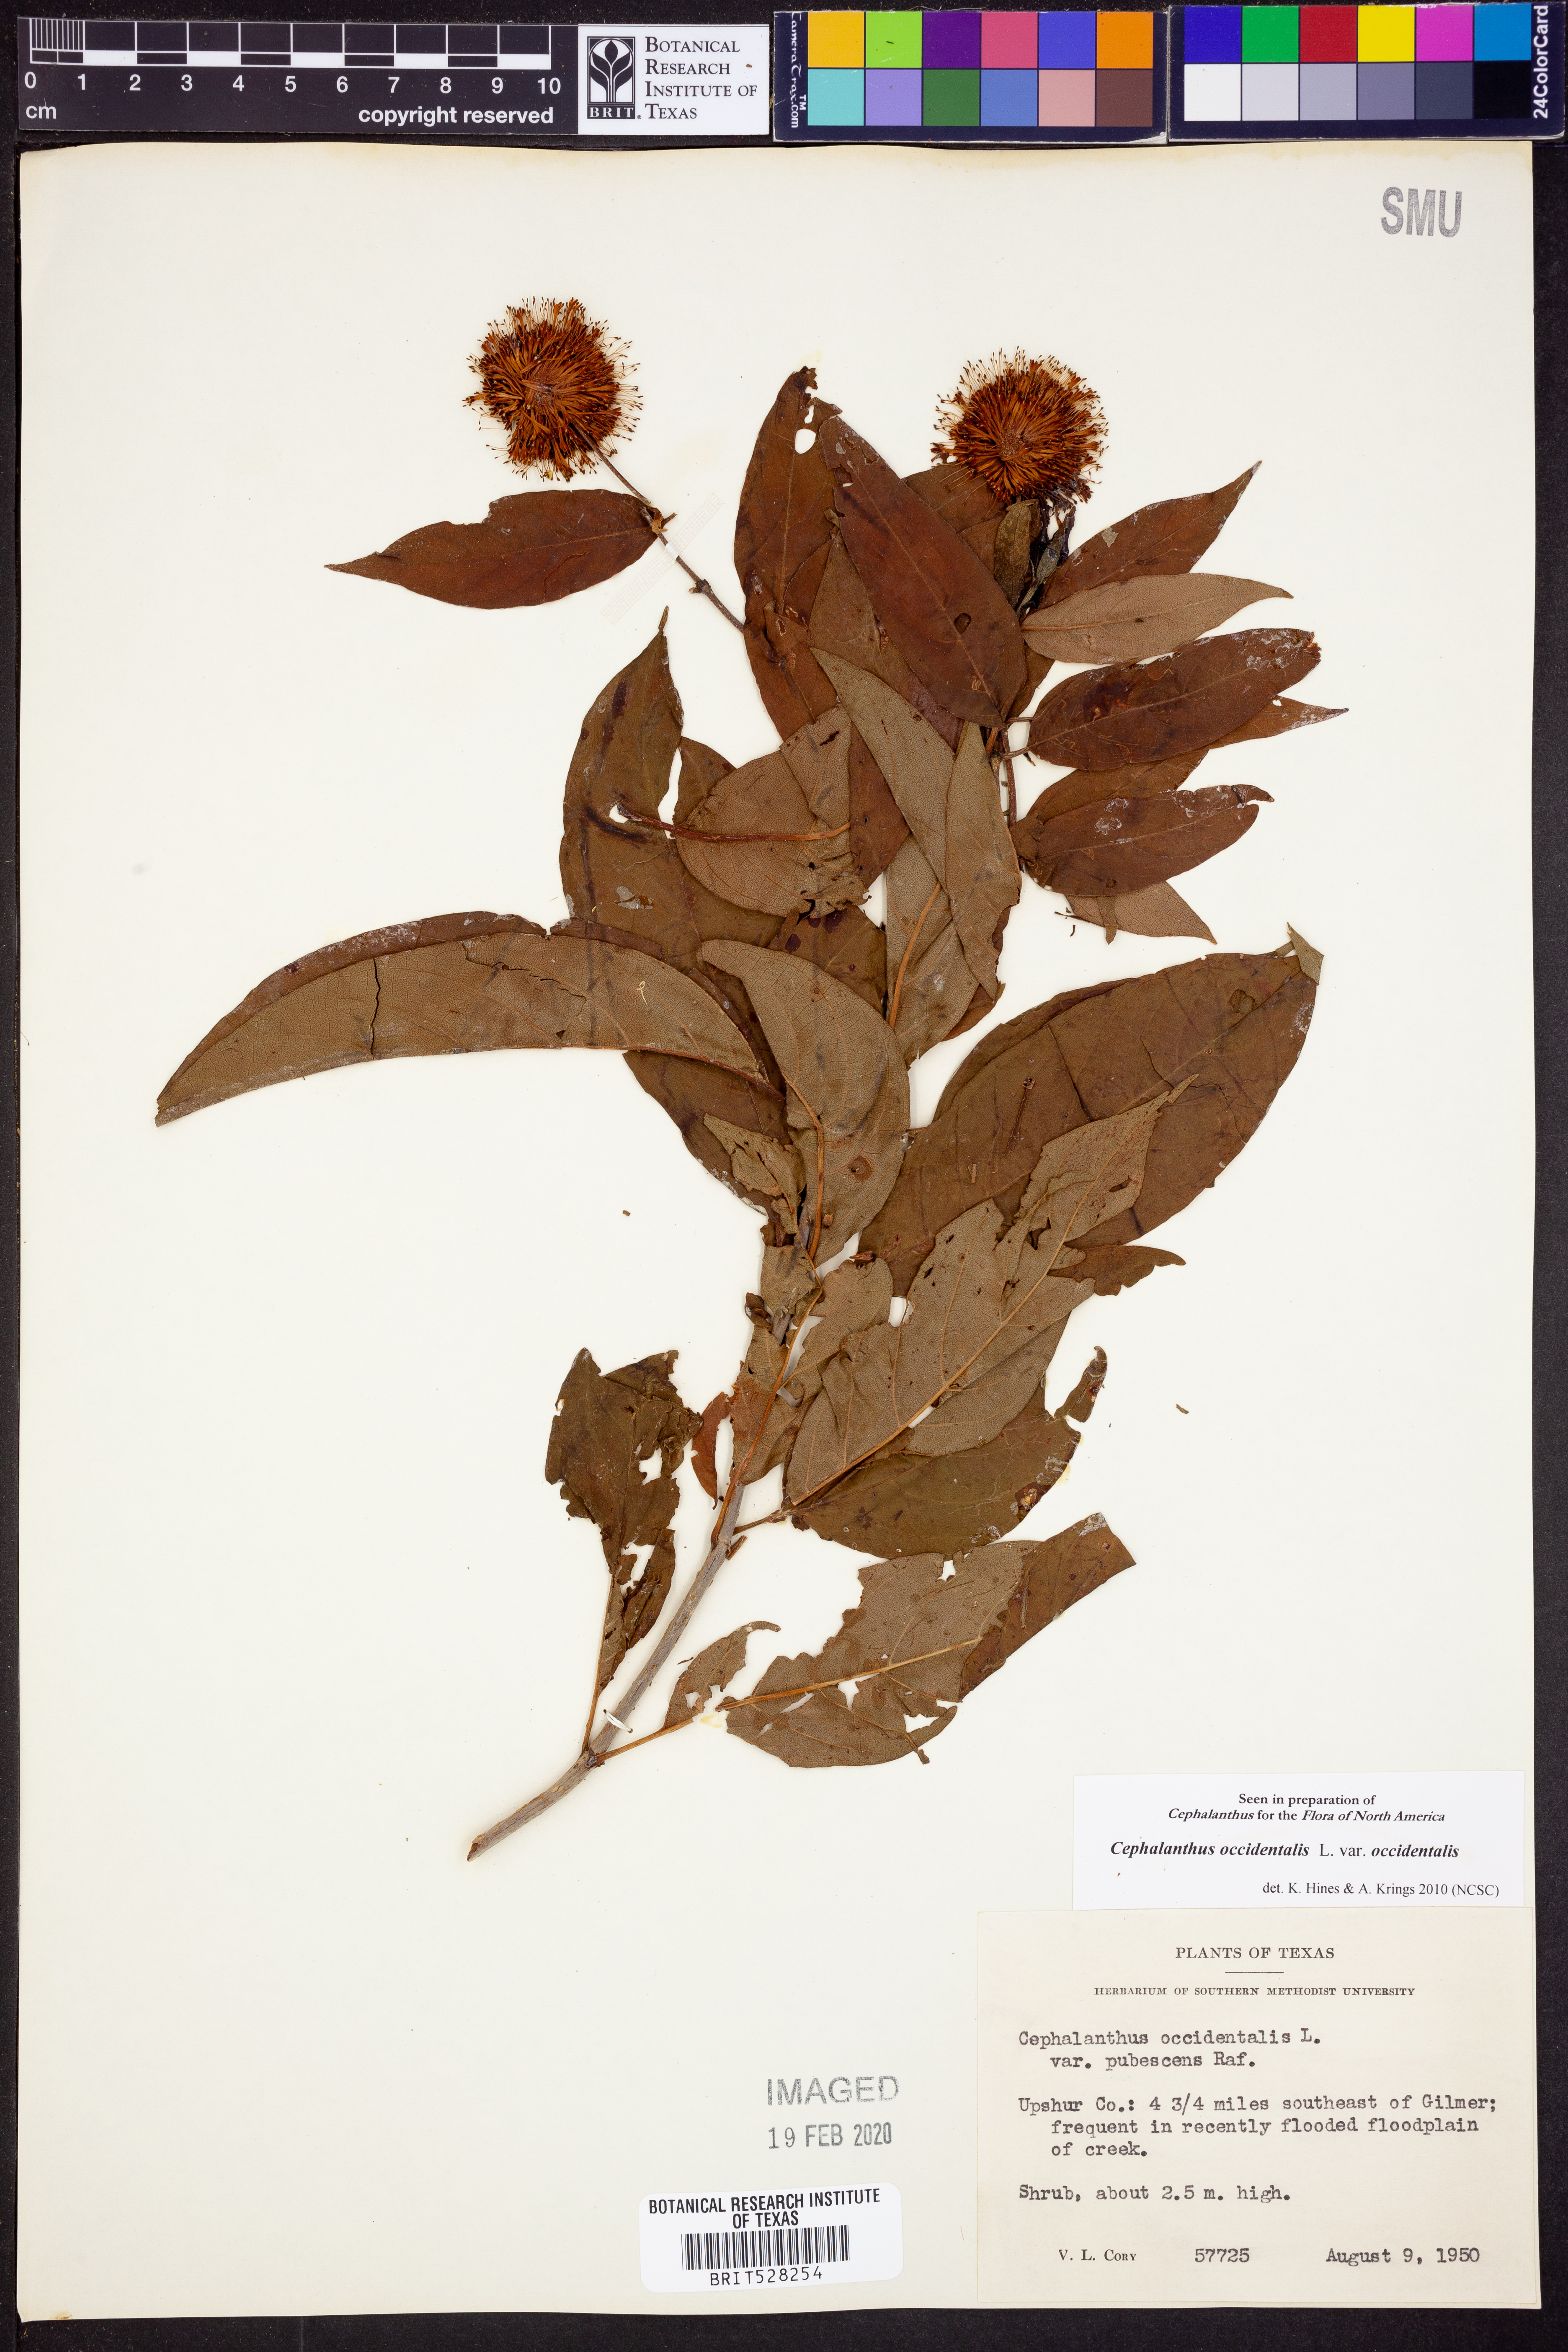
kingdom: Plantae
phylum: Tracheophyta
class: Magnoliopsida
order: Gentianales
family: Rubiaceae
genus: Cephalanthus
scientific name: Cephalanthus occidentalis
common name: Button-willow
